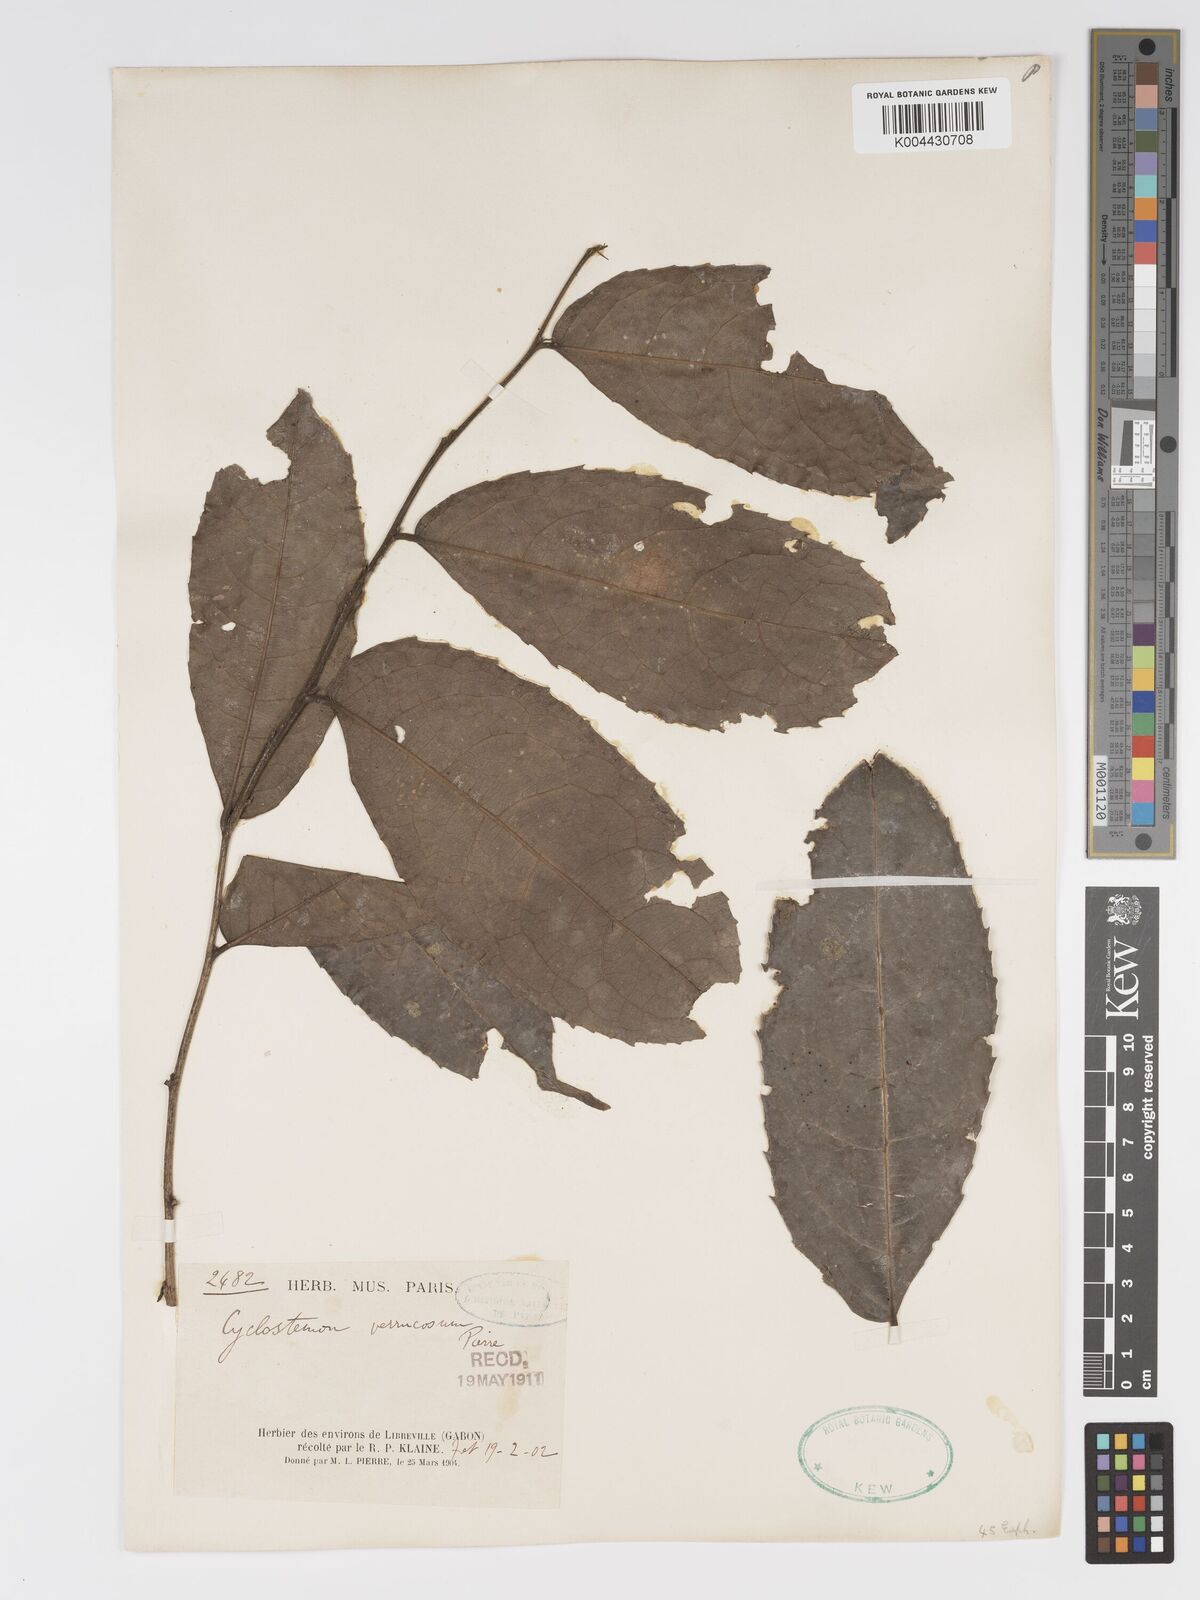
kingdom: Plantae
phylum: Tracheophyta
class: Magnoliopsida
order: Malpighiales
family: Putranjivaceae
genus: Drypetes
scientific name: Drypetes verrucosa
